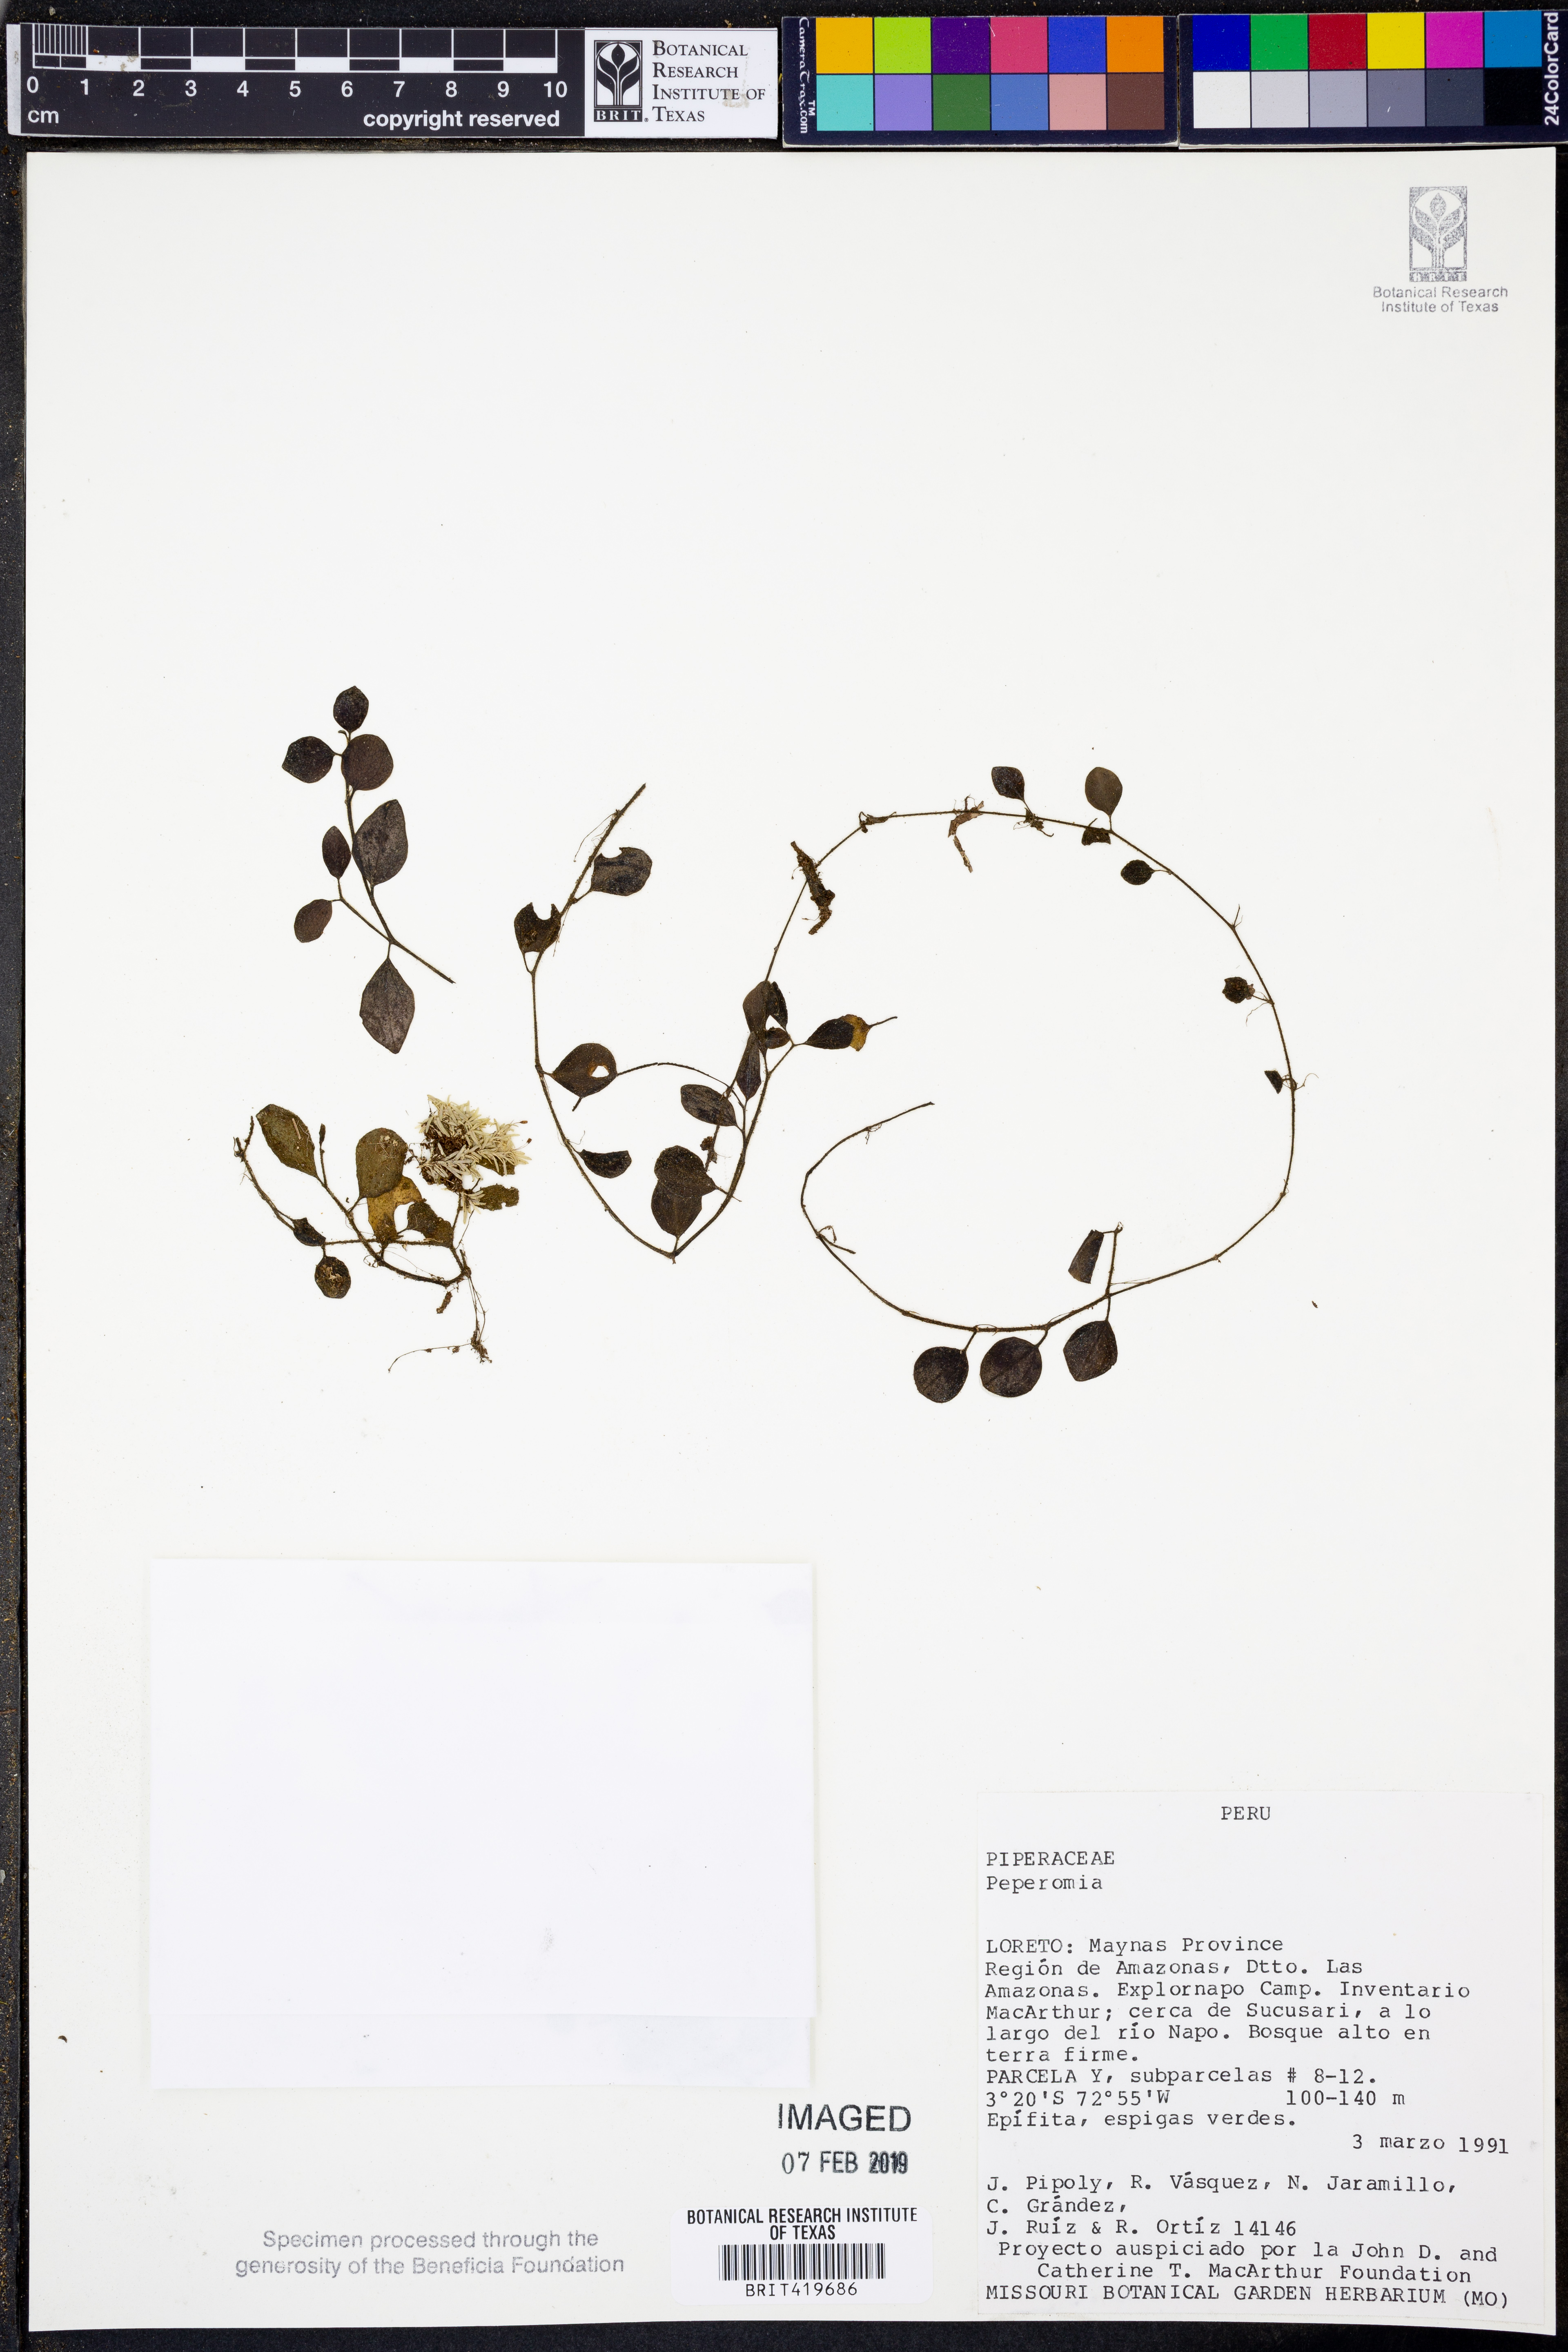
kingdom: Plantae
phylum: Tracheophyta
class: Magnoliopsida
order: Piperales
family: Piperaceae
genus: Peperomia
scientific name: Peperomia
